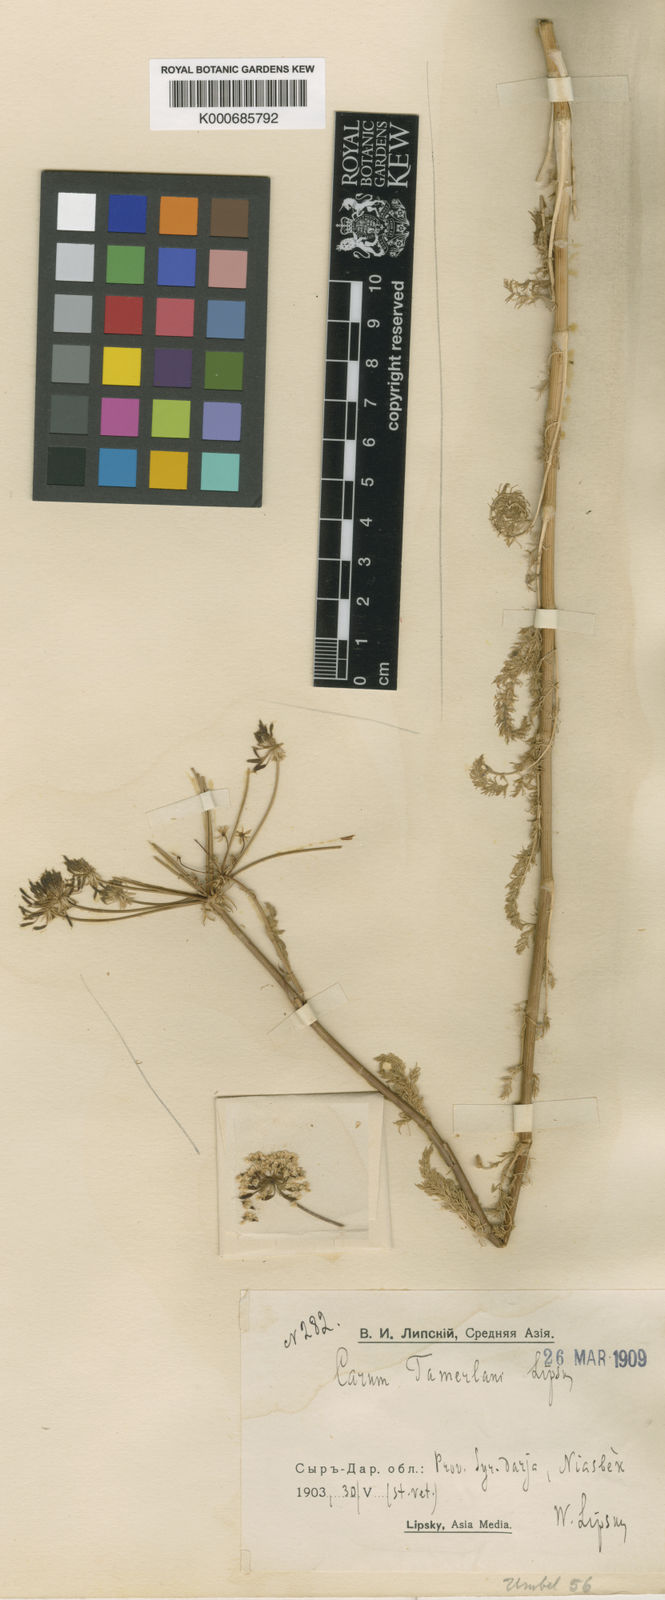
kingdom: Plantae
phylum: Tracheophyta
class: Magnoliopsida
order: Apiales
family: Apiaceae
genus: Oedibasis
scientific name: Oedibasis chaerophylloides
